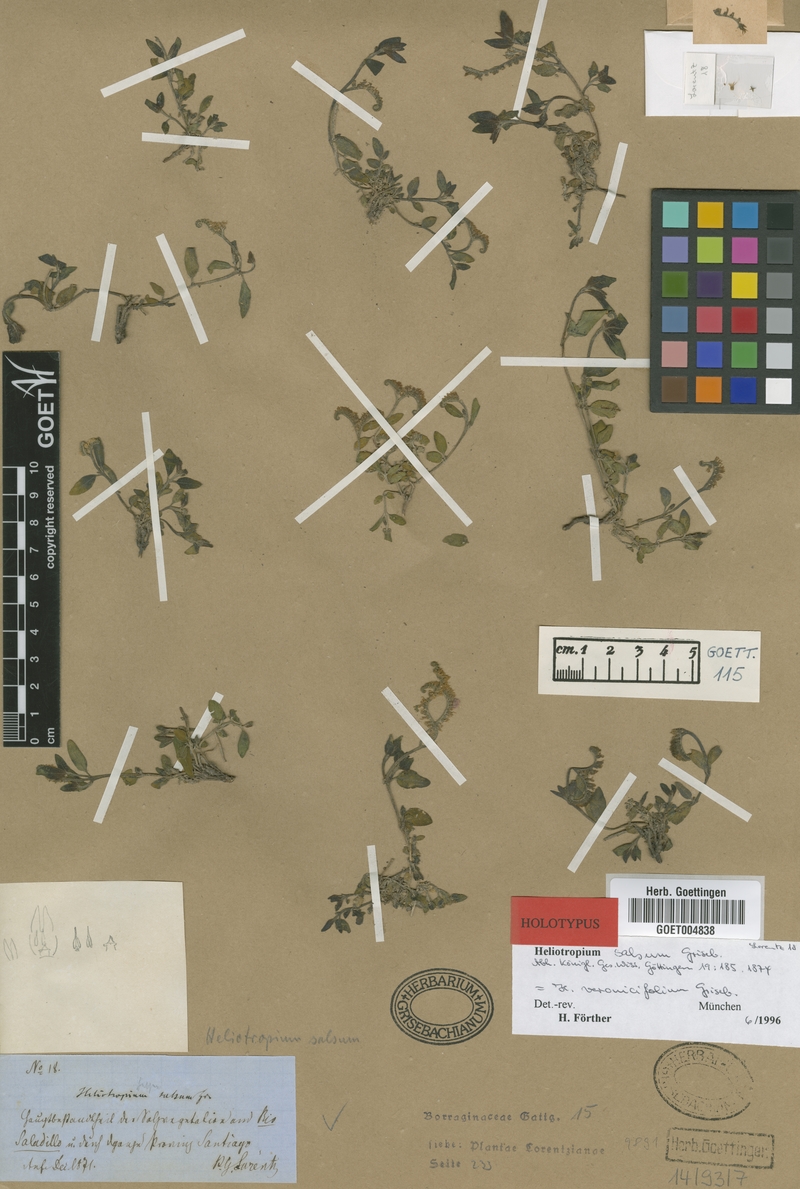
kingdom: Plantae
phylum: Tracheophyta
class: Magnoliopsida
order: Boraginales
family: Heliotropiaceae
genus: Heliotropium
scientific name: Heliotropium veronicifolium
